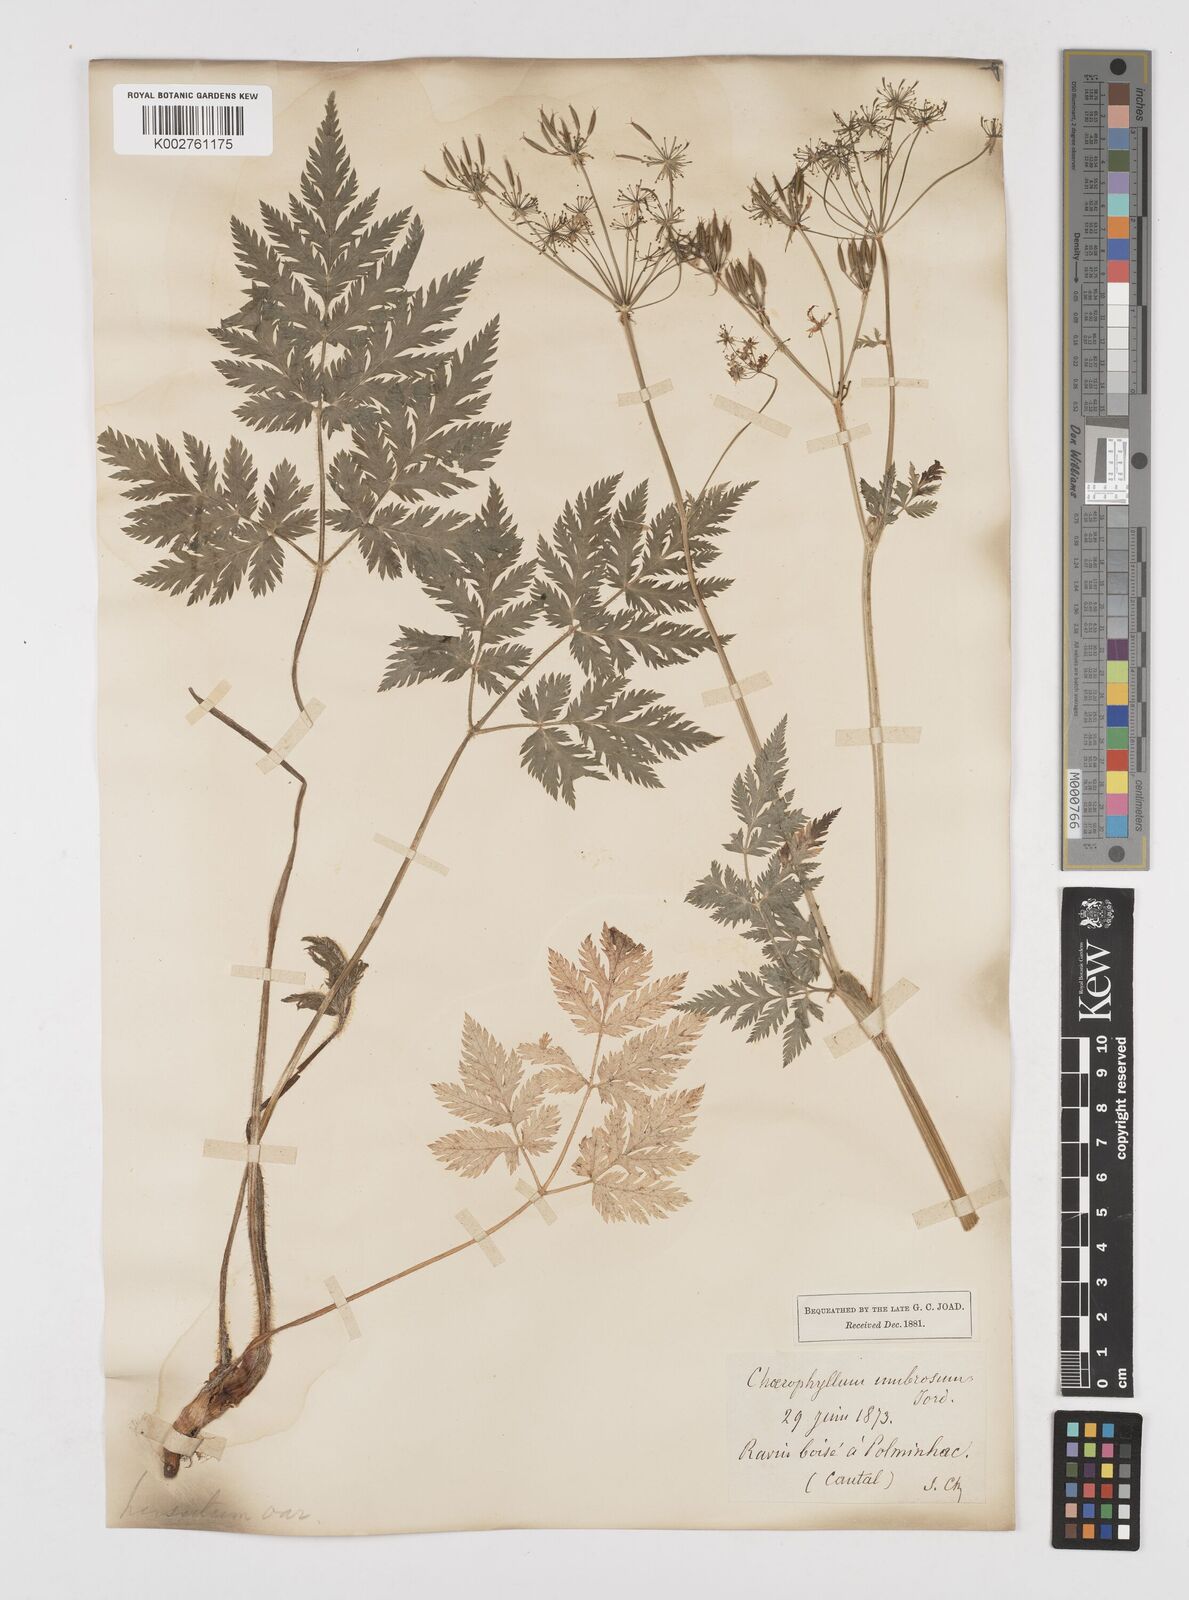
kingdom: Plantae
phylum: Tracheophyta
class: Magnoliopsida
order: Apiales
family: Apiaceae
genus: Chaerophyllum
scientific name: Chaerophyllum hirsutum
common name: Hairy chervil
